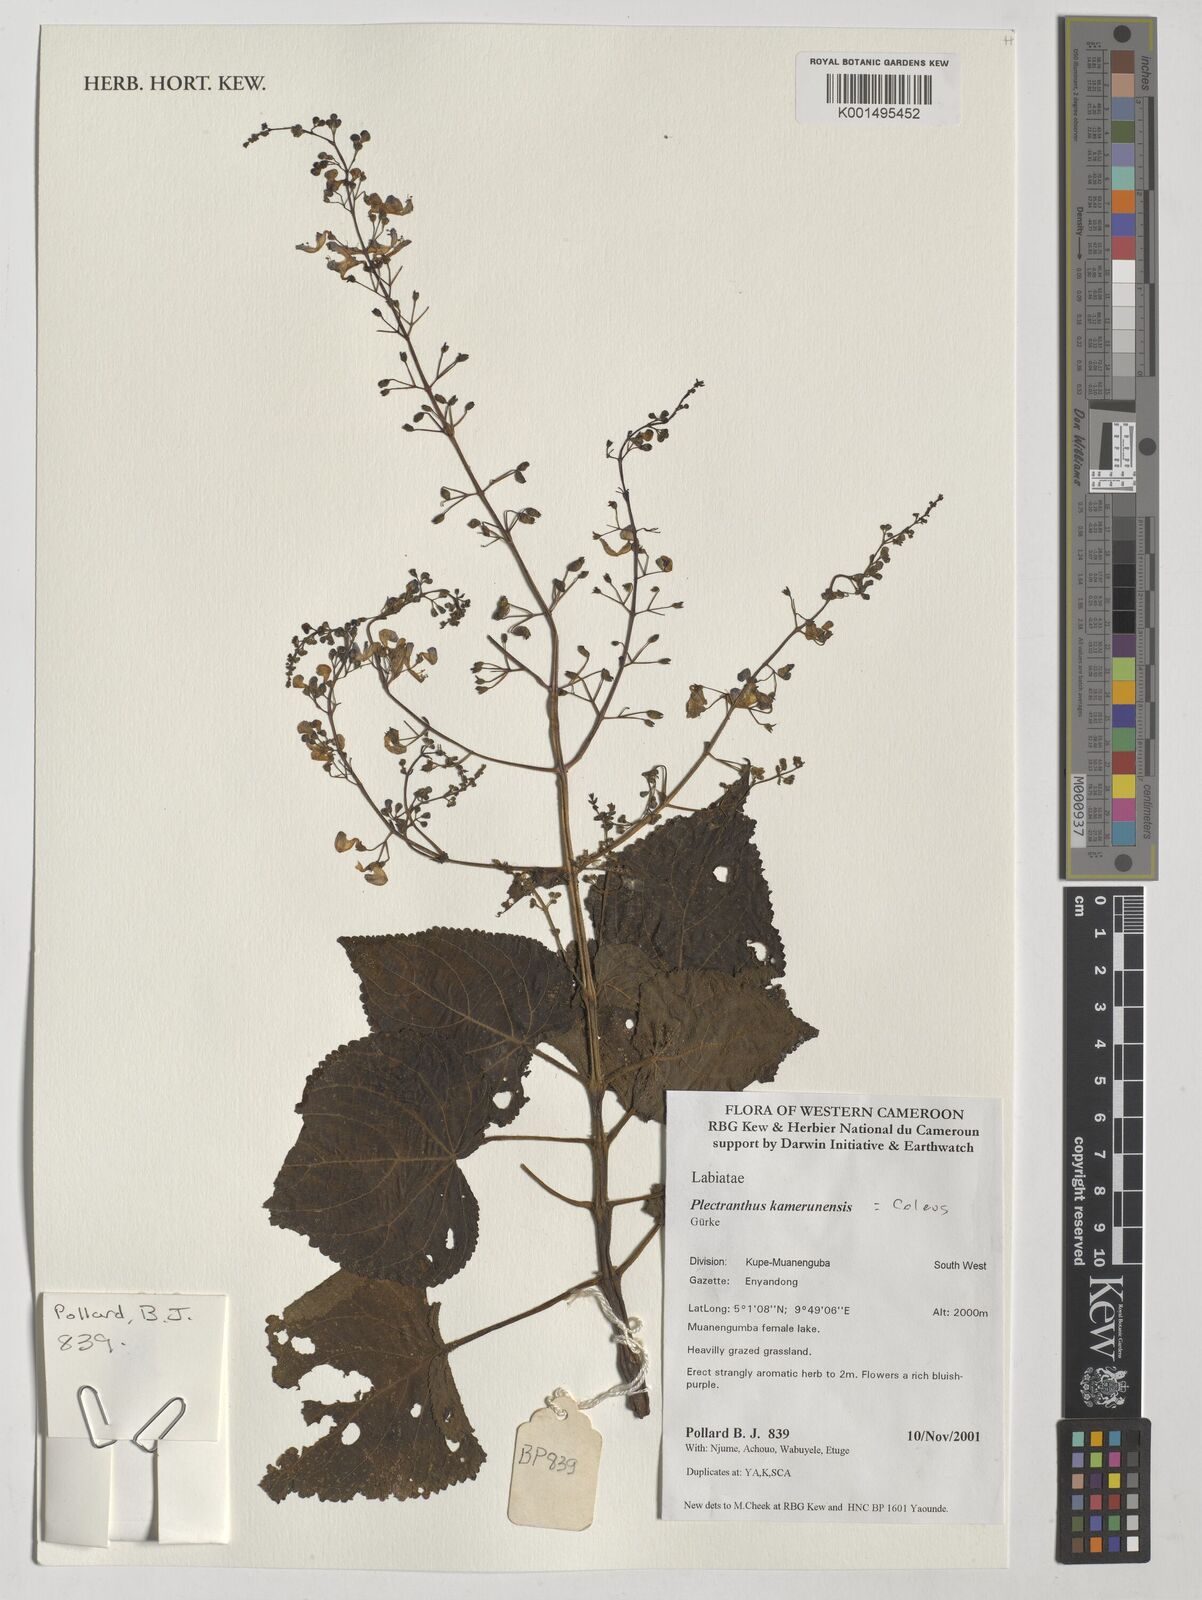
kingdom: Plantae
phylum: Tracheophyta
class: Magnoliopsida
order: Lamiales
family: Lamiaceae
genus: Equilabium
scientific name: Equilabium kamerunense
